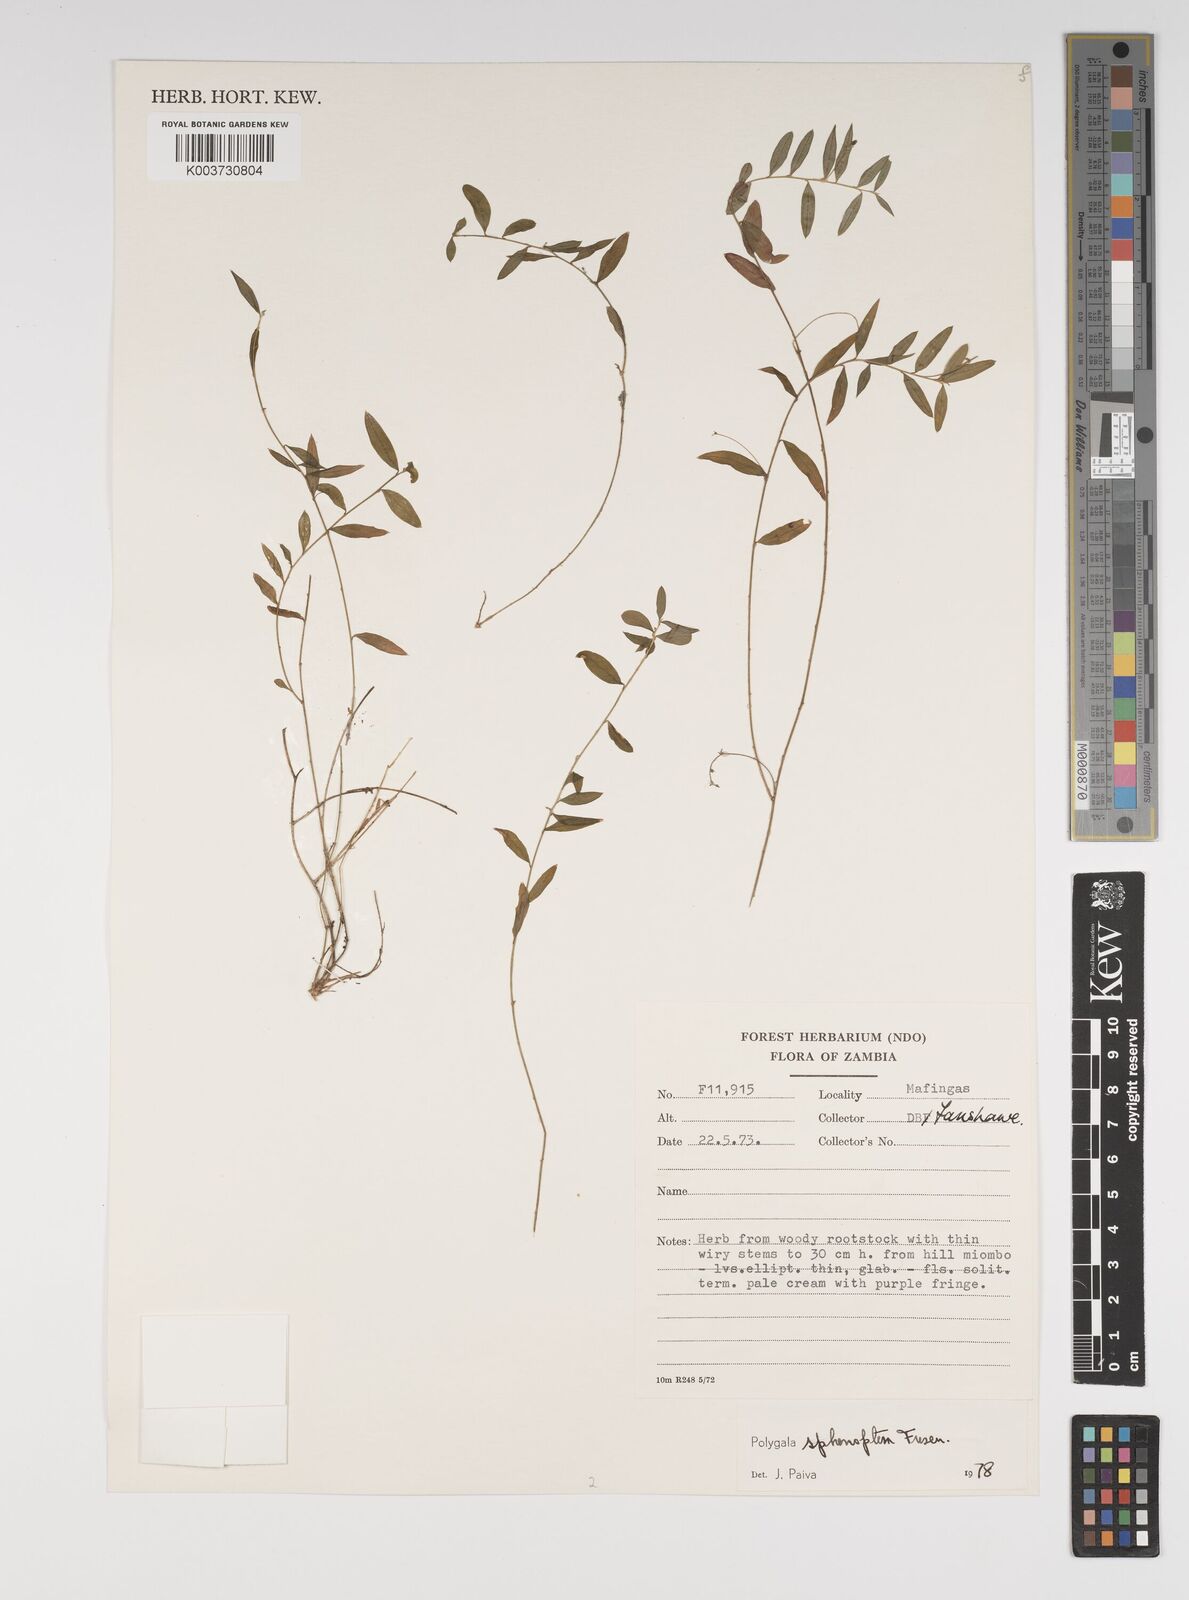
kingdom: Plantae
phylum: Tracheophyta
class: Magnoliopsida
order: Fabales
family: Polygalaceae
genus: Polygala
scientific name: Polygala sphenoptera
